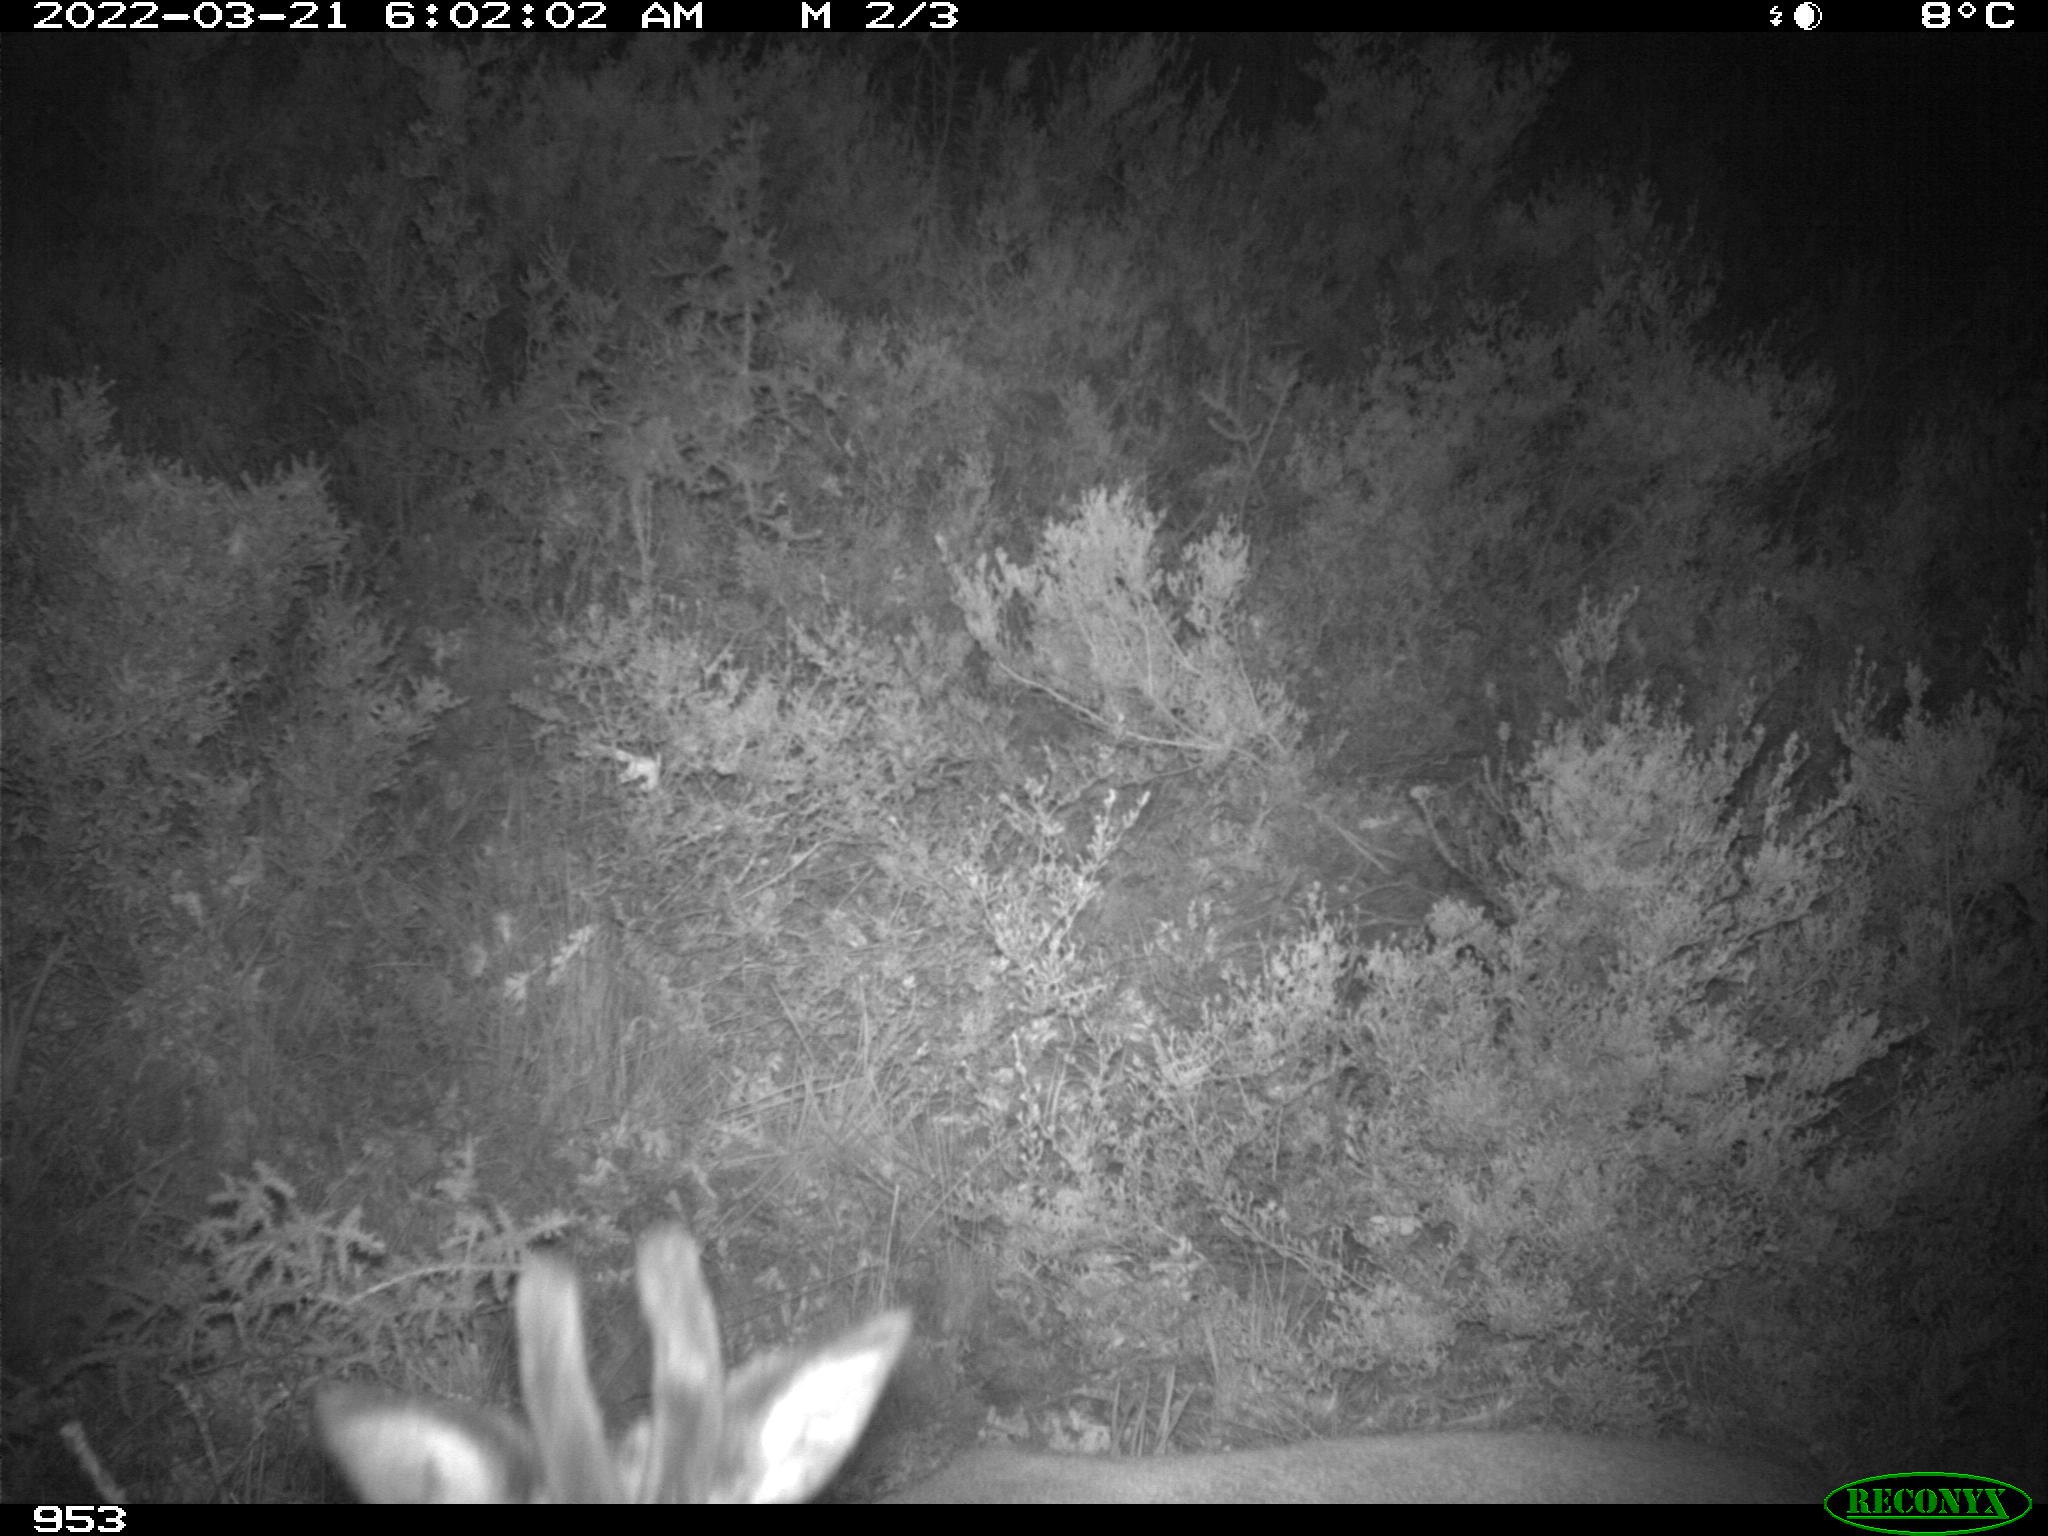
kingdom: Animalia
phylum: Chordata
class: Mammalia
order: Artiodactyla
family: Cervidae
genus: Capreolus
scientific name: Capreolus capreolus
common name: Western roe deer
